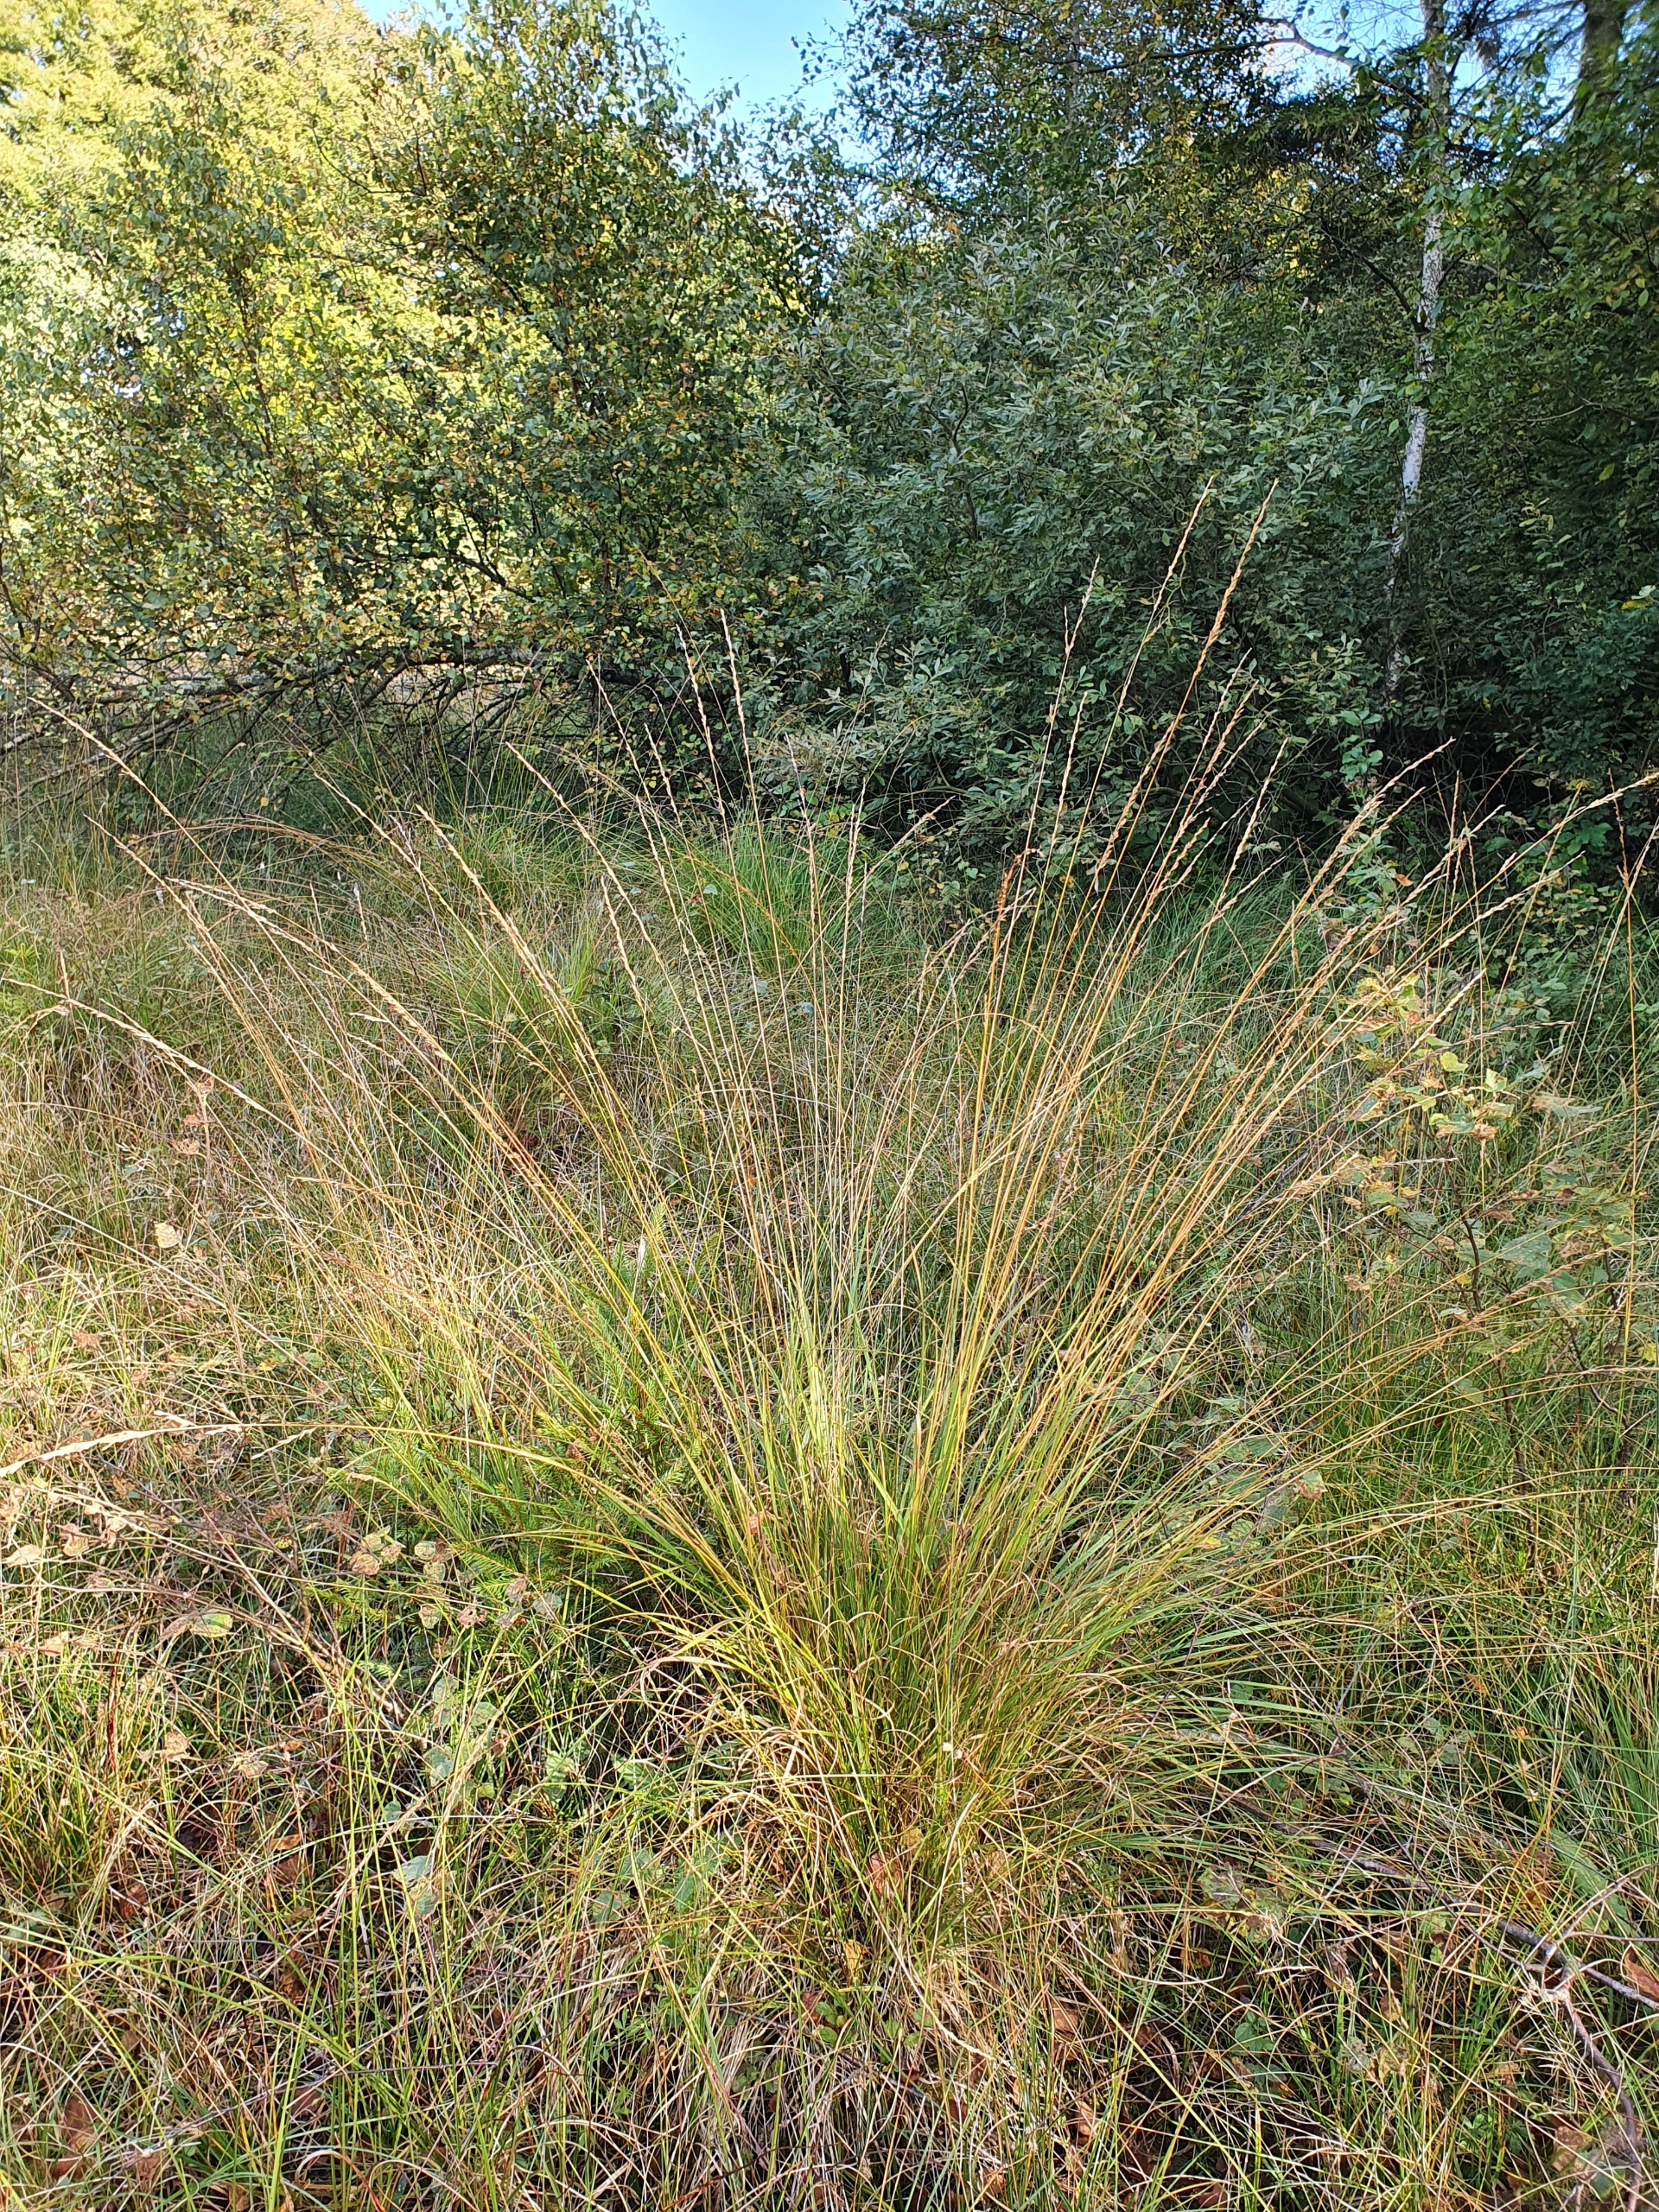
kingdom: Plantae
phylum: Tracheophyta
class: Liliopsida
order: Poales
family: Poaceae
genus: Molinia
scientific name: Molinia caerulea
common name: Blåtop
